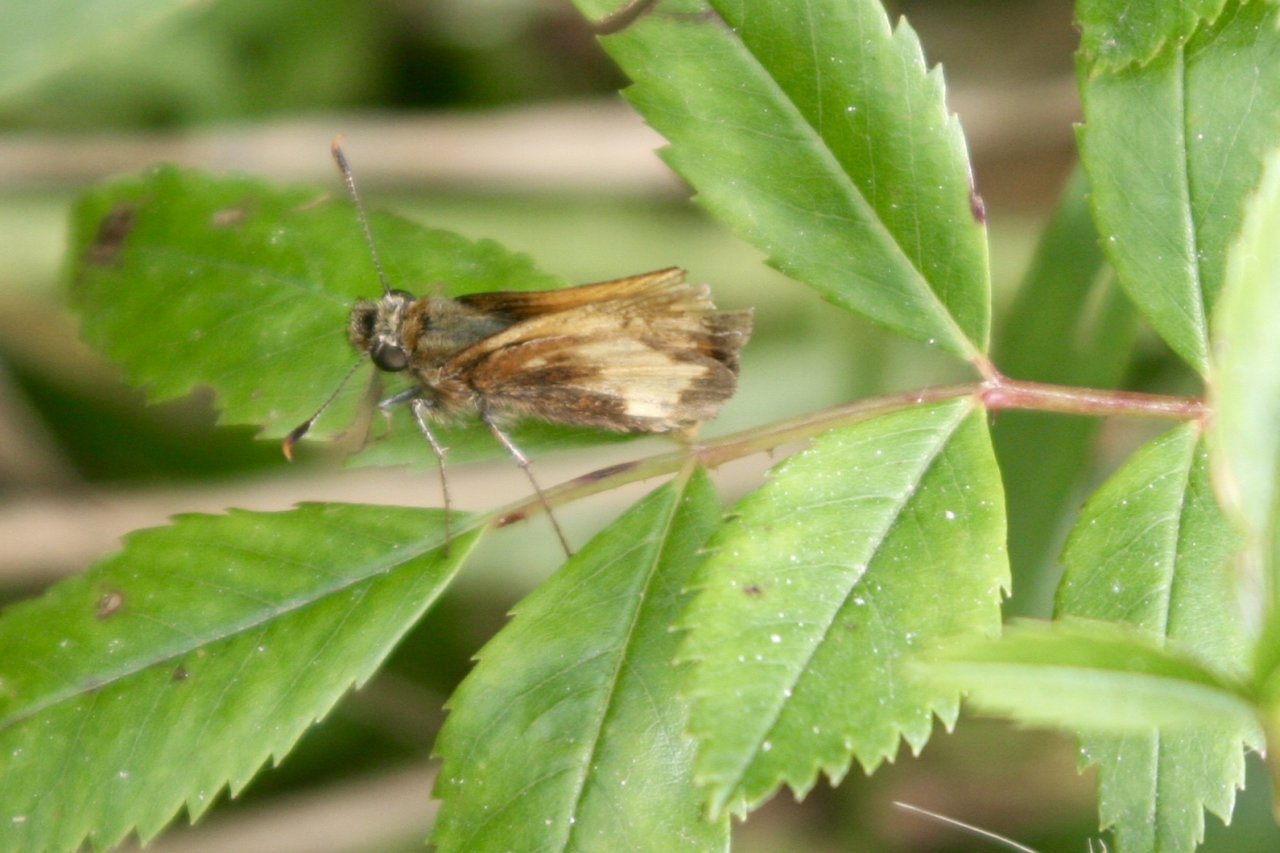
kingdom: Animalia
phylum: Arthropoda
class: Insecta
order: Lepidoptera
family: Hesperiidae
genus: Lon
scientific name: Lon hobomok
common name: Hobomok Skipper
